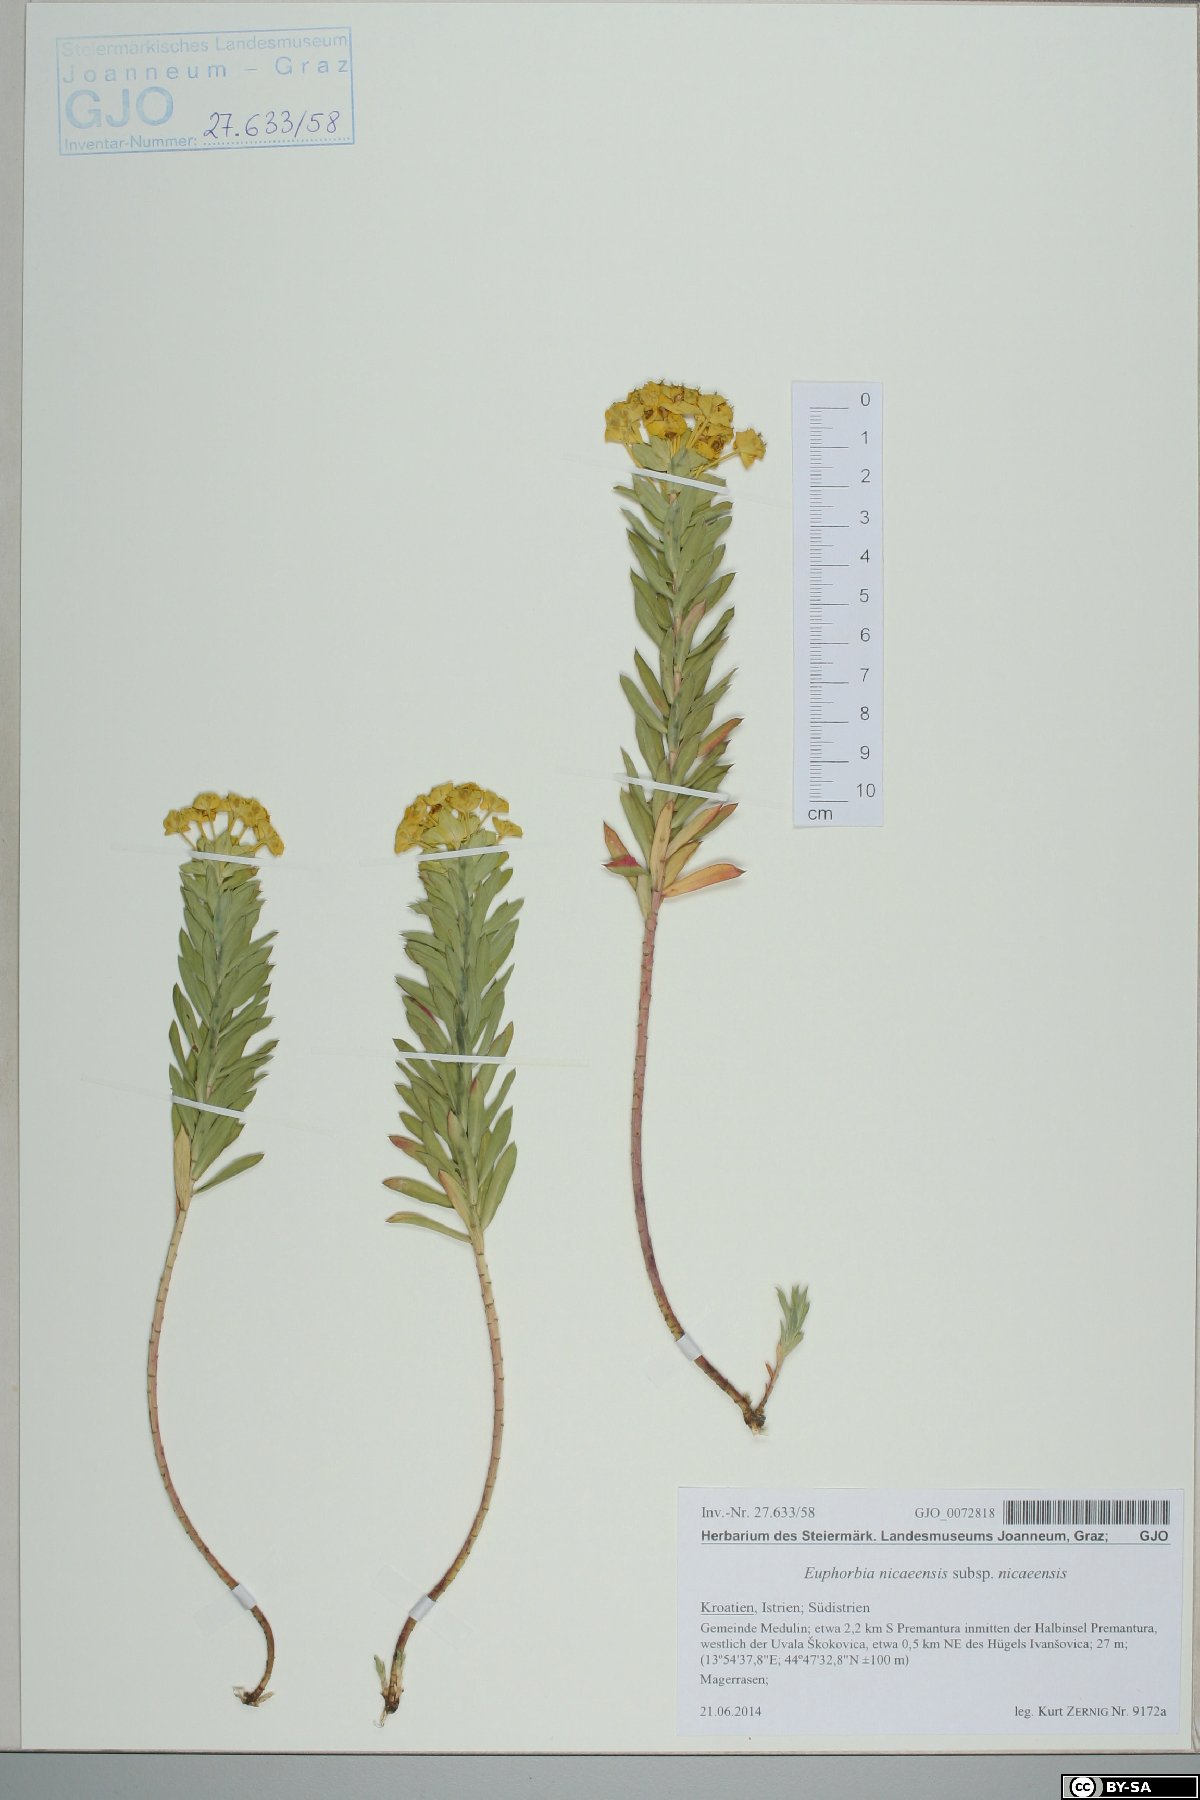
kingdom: Plantae
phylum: Tracheophyta
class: Magnoliopsida
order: Malpighiales
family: Euphorbiaceae
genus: Euphorbia
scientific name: Euphorbia nicaeensis
